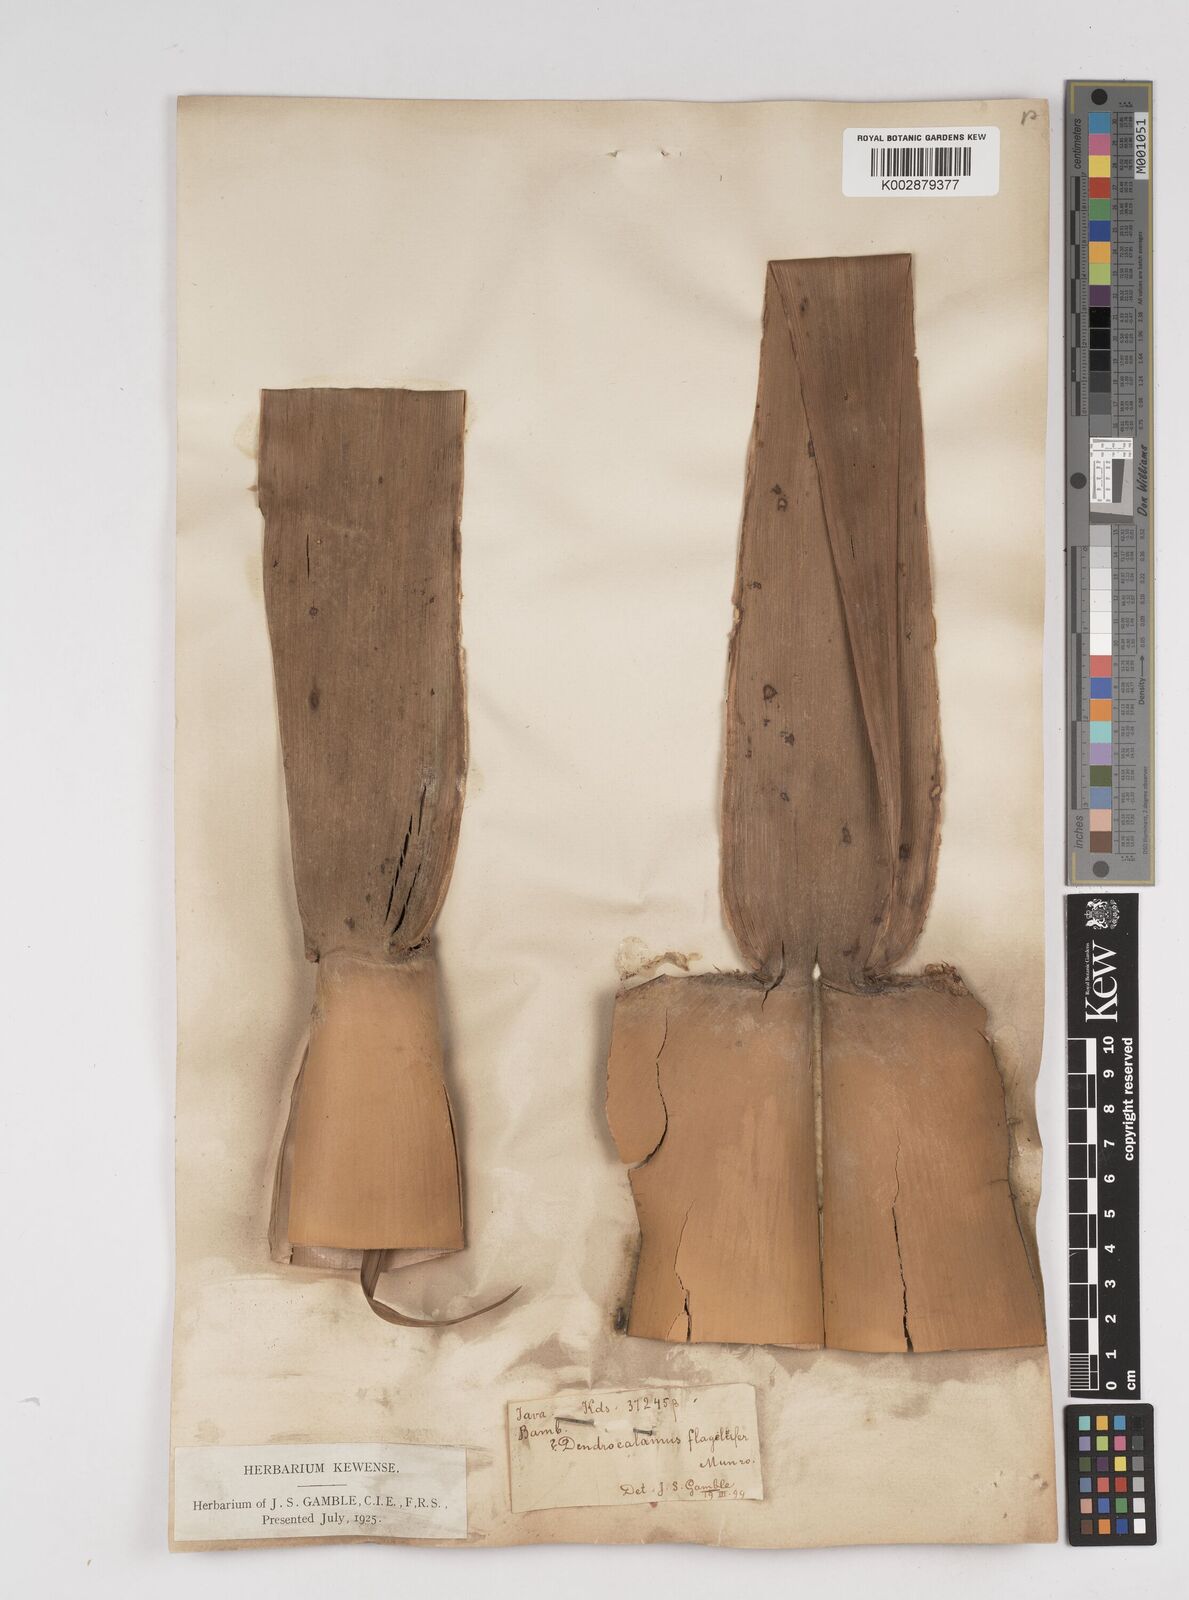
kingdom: Plantae
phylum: Tracheophyta
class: Liliopsida
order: Poales
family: Poaceae
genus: Dendrocalamus
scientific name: Dendrocalamus asper
